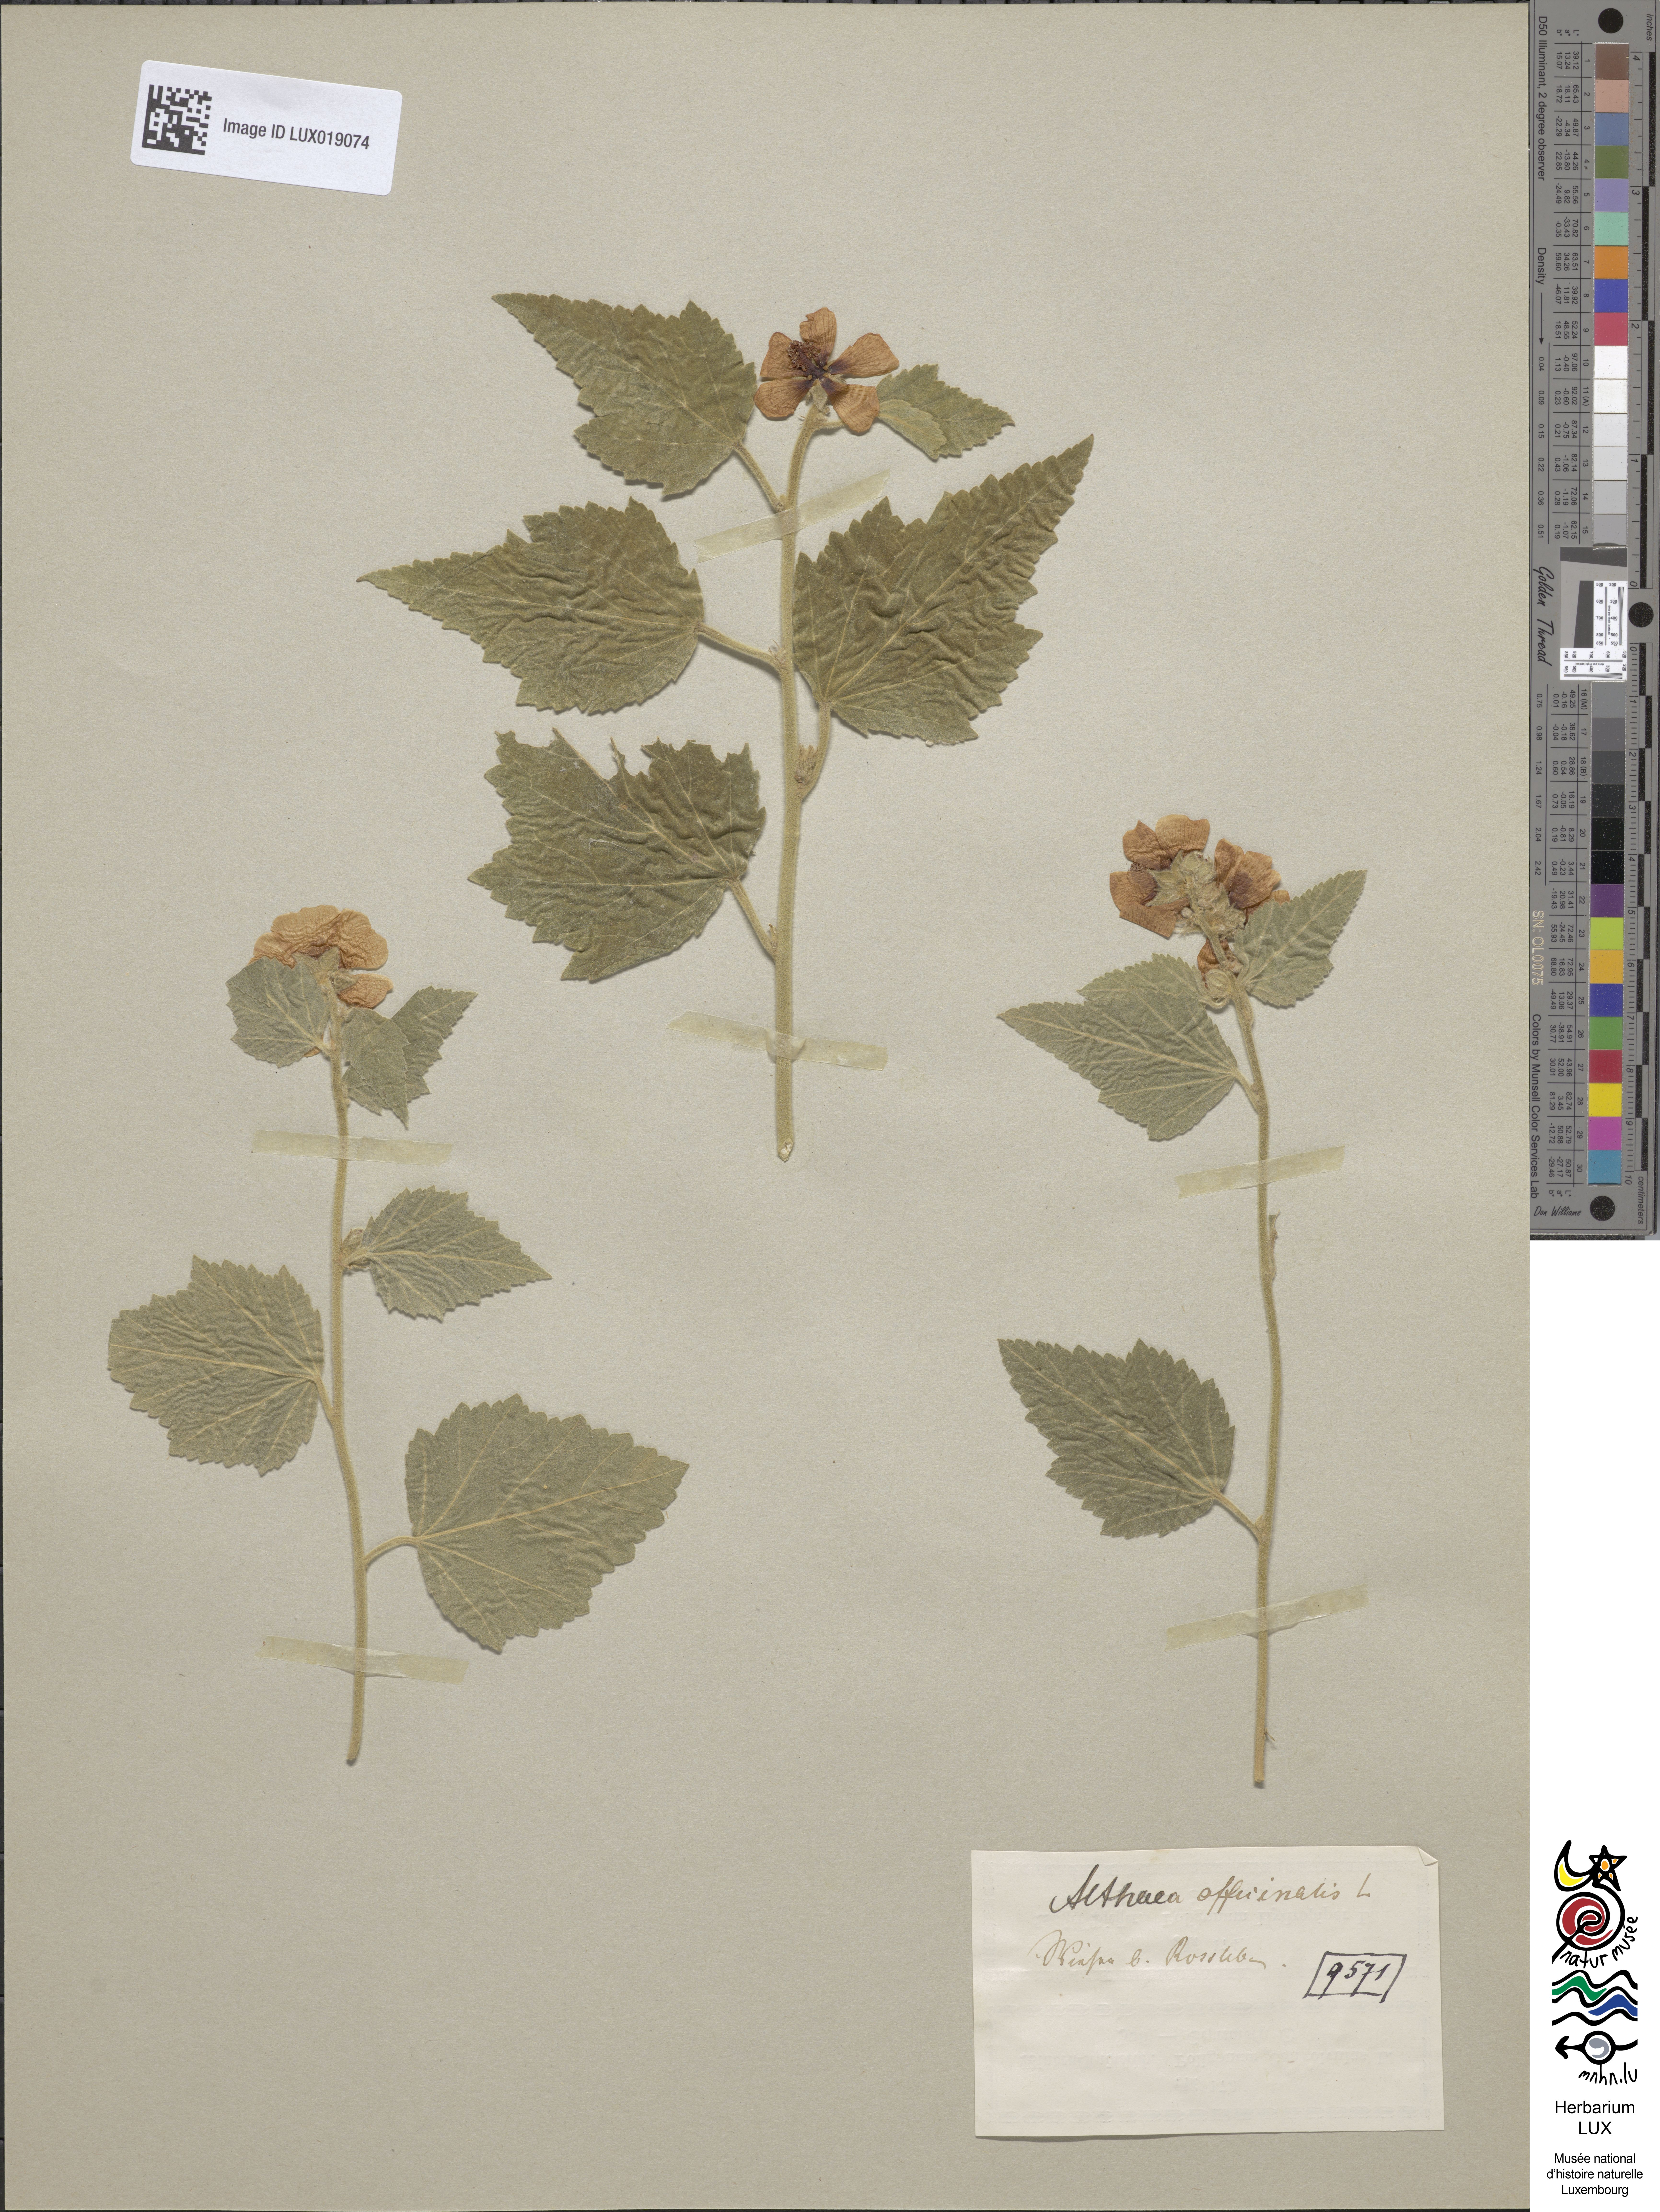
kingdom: Plantae
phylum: Tracheophyta
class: Magnoliopsida
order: Malvales
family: Malvaceae
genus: Althaea
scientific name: Althaea officinalis
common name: Marsh-mallow
